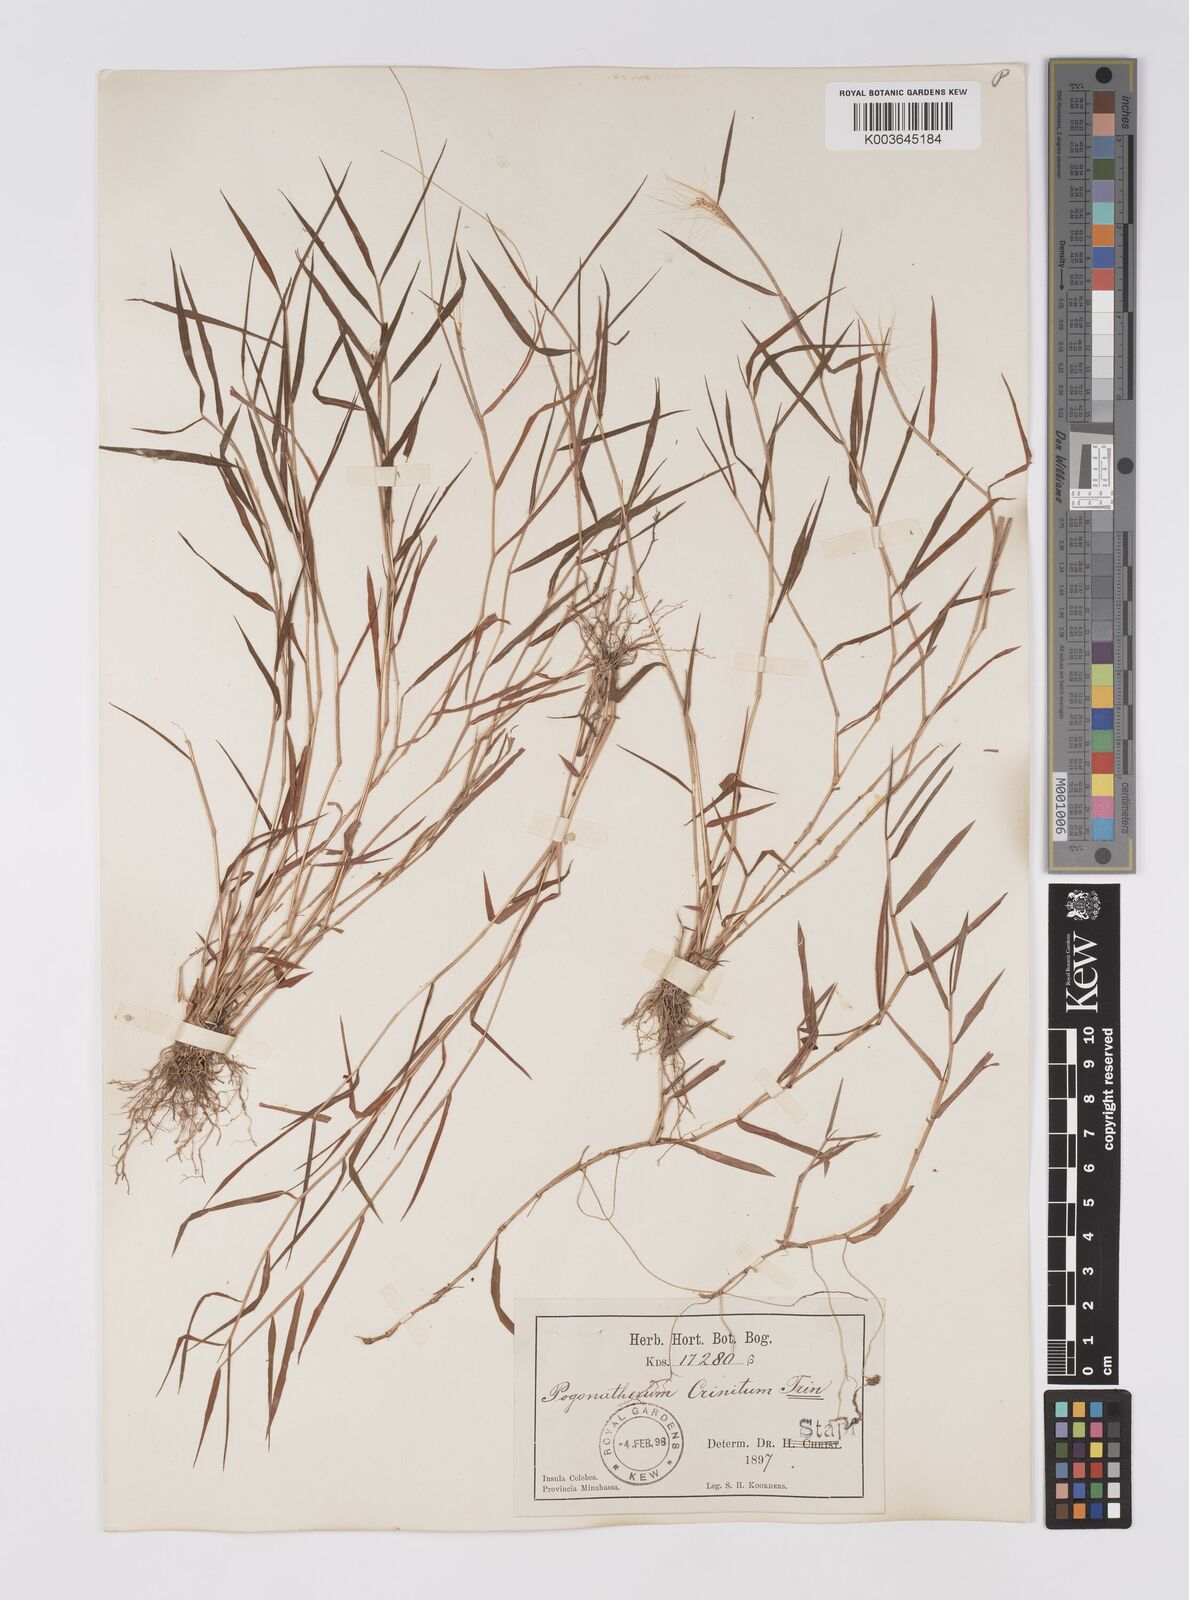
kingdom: Plantae
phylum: Tracheophyta
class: Liliopsida
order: Poales
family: Poaceae
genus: Pogonatherum
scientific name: Pogonatherum crinitum
